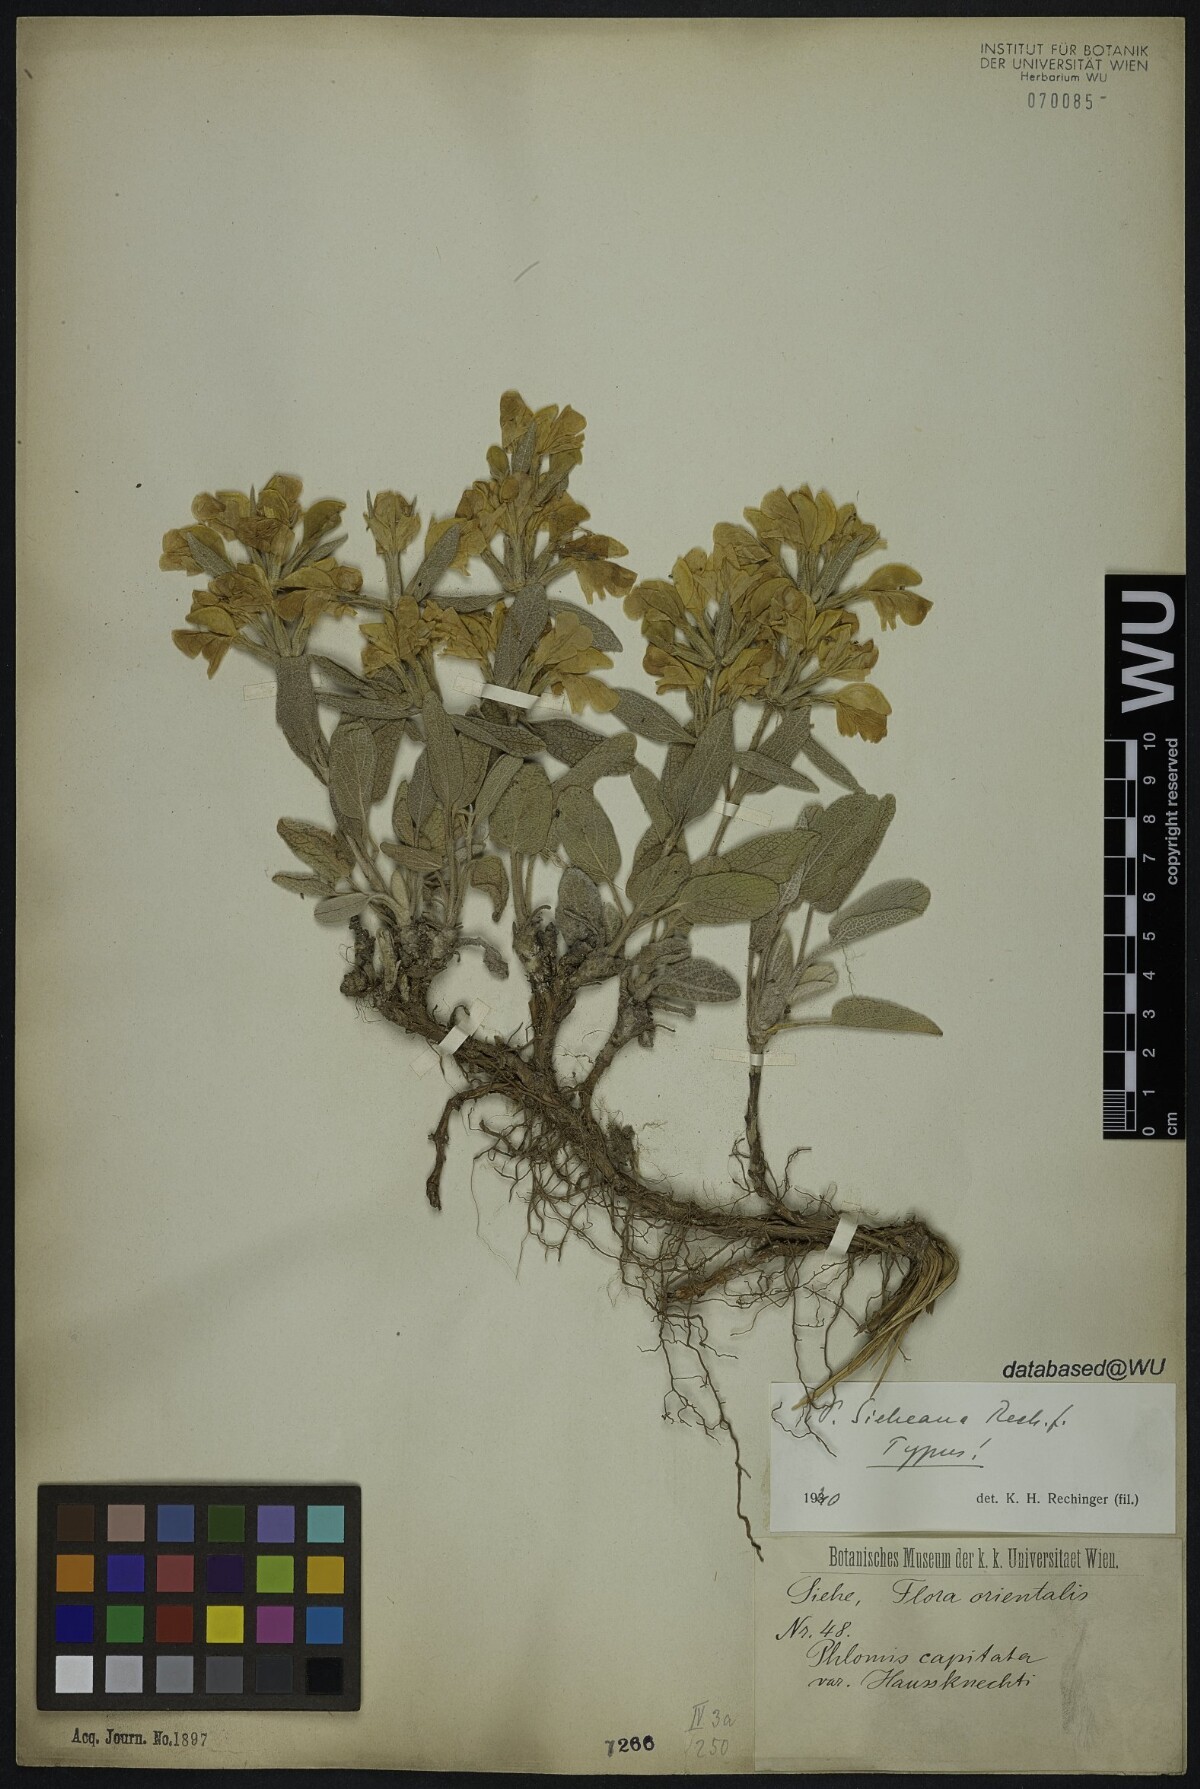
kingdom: Plantae
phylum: Tracheophyta
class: Magnoliopsida
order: Lamiales
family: Lamiaceae
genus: Phlomis
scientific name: Phlomis sieheana
